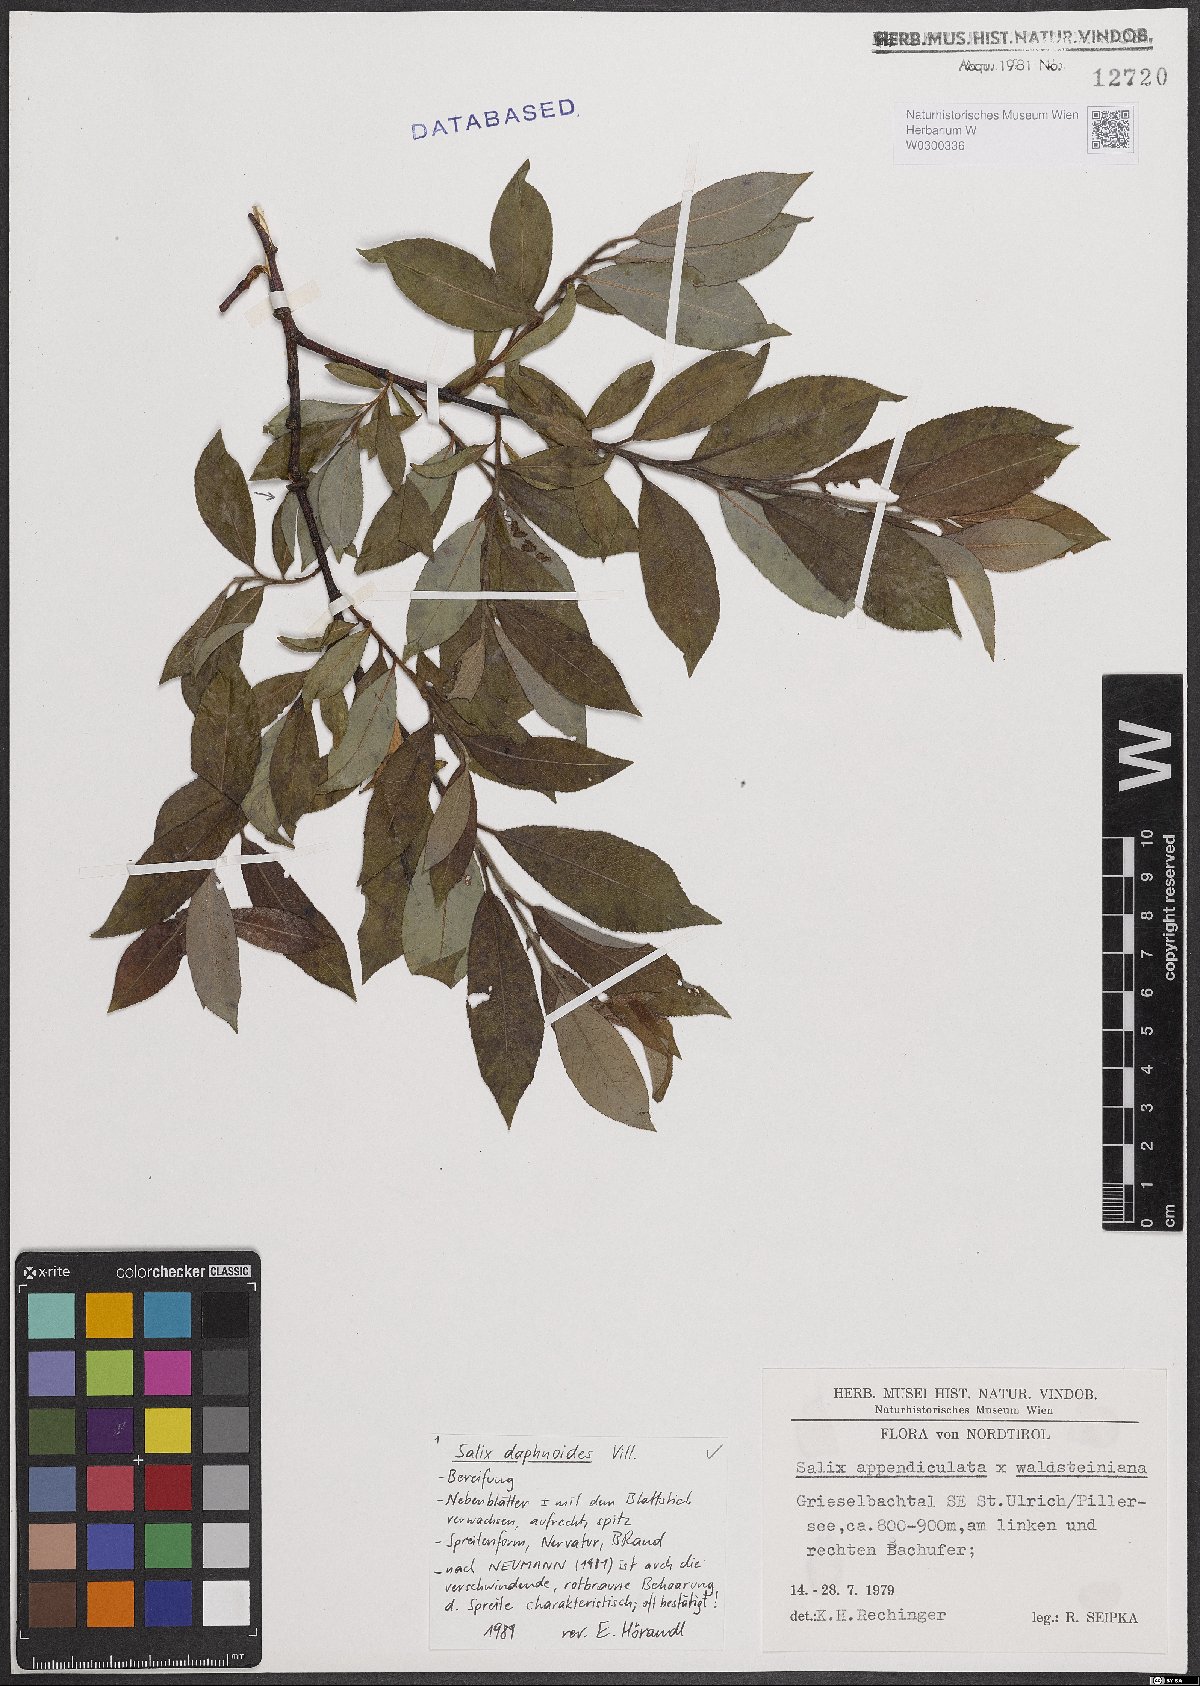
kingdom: Plantae
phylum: Tracheophyta
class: Magnoliopsida
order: Malpighiales
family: Salicaceae
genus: Salix
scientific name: Salix daphnoides
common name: European violet-willow
